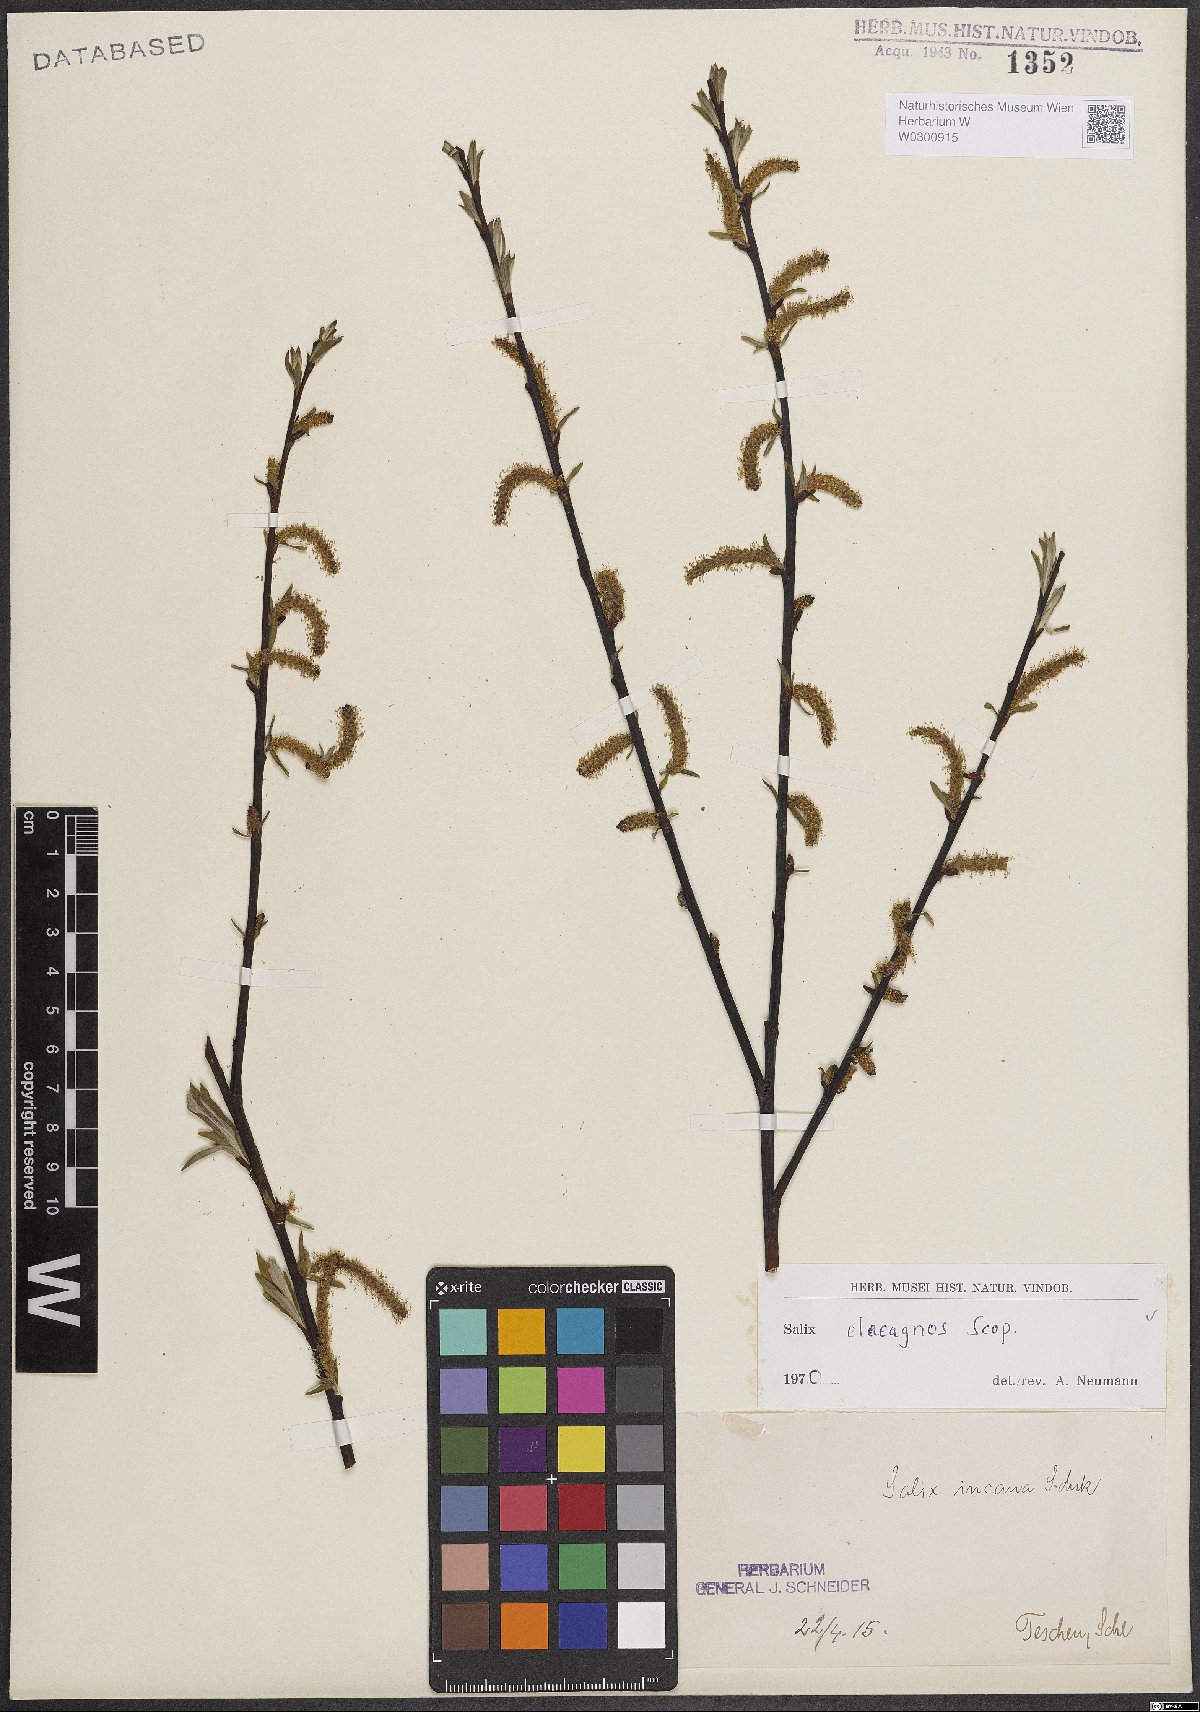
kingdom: Plantae
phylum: Tracheophyta
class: Magnoliopsida
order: Malpighiales
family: Salicaceae
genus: Salix
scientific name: Salix eleagnos
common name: Elaeagnus willow
